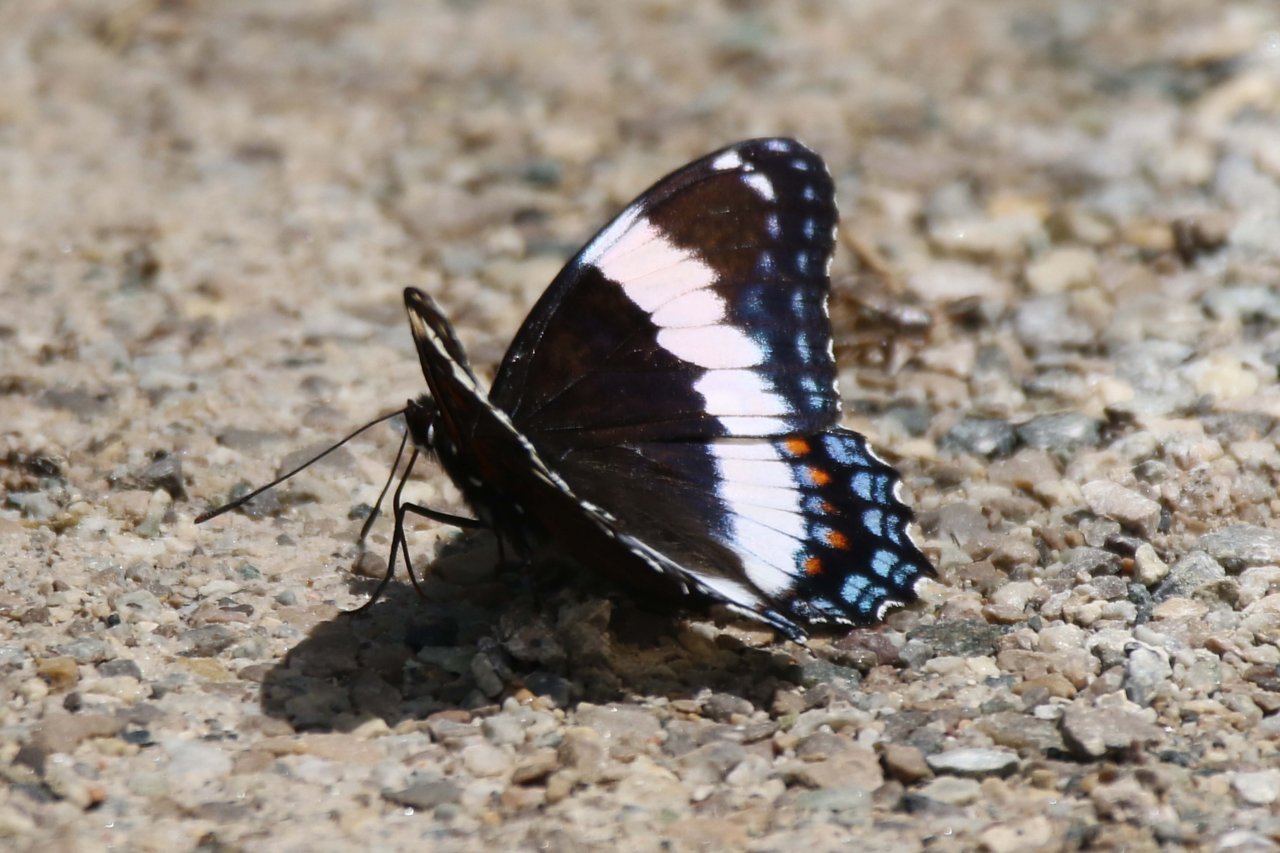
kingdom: Animalia
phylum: Arthropoda
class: Insecta
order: Lepidoptera
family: Nymphalidae
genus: Limenitis
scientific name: Limenitis arthemis
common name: Red-spotted Admiral
